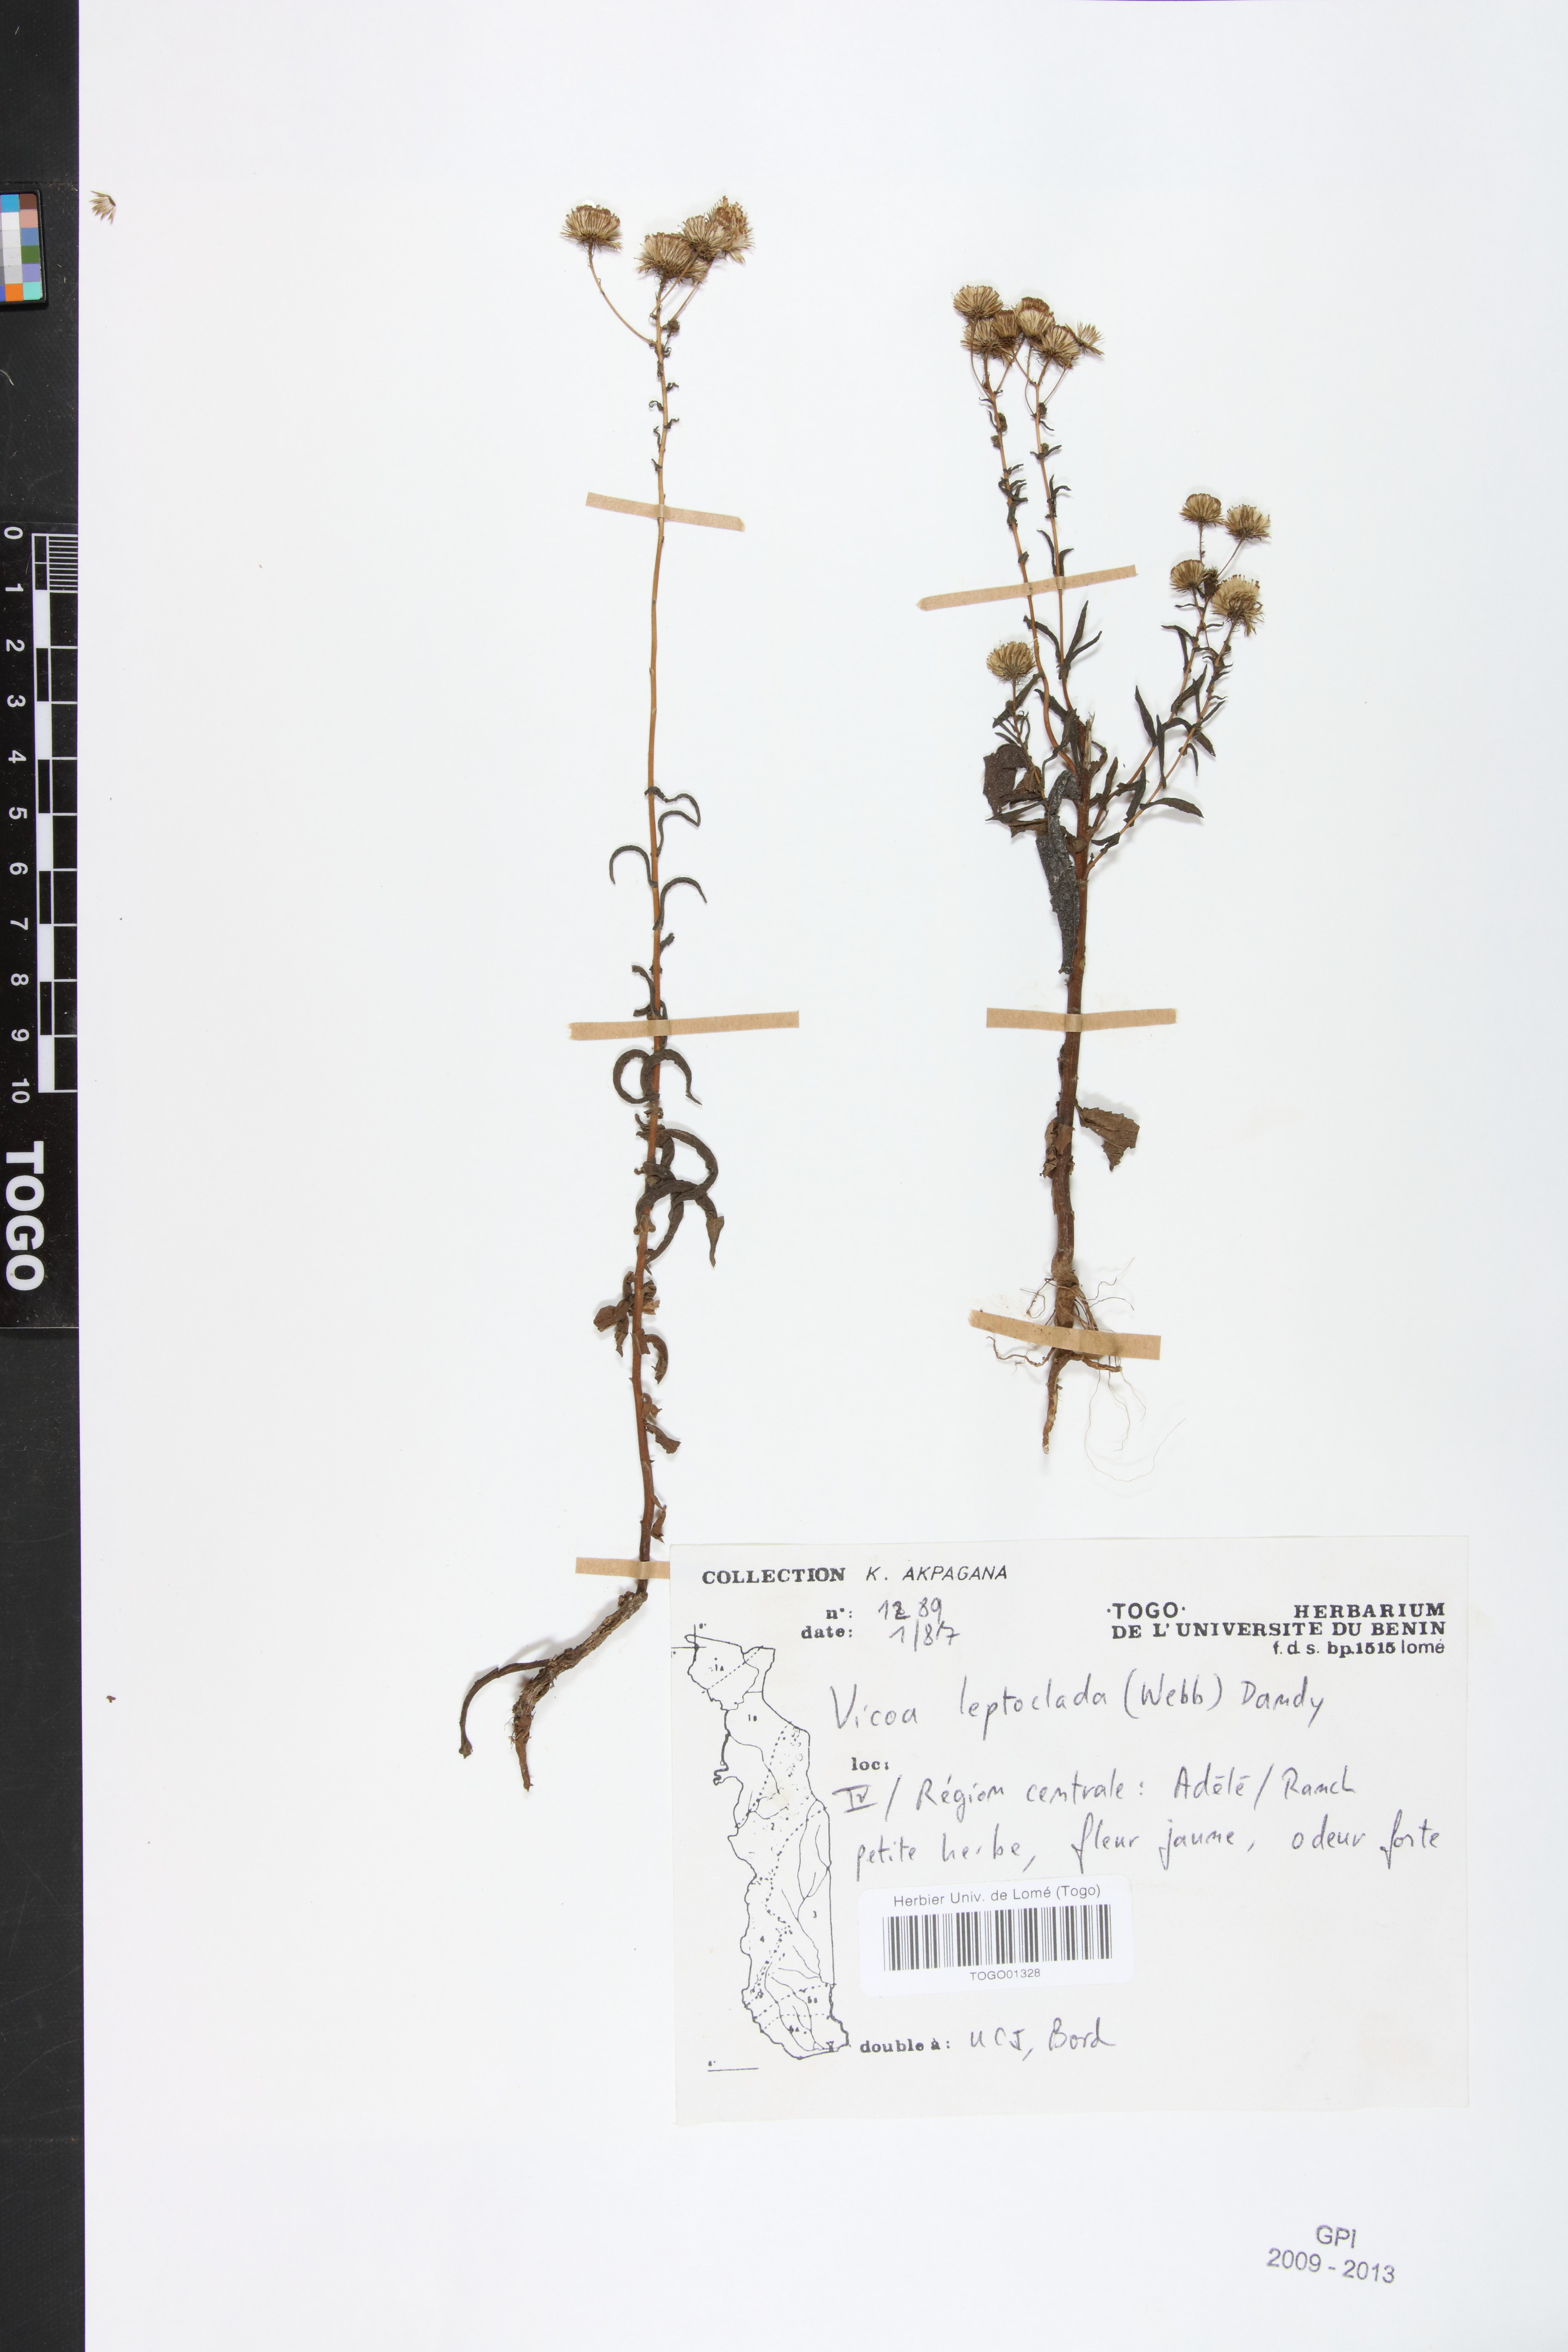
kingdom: Plantae
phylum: Tracheophyta
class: Magnoliopsida
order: Asterales
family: Asteraceae
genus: Vicoa
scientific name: Vicoa indica
